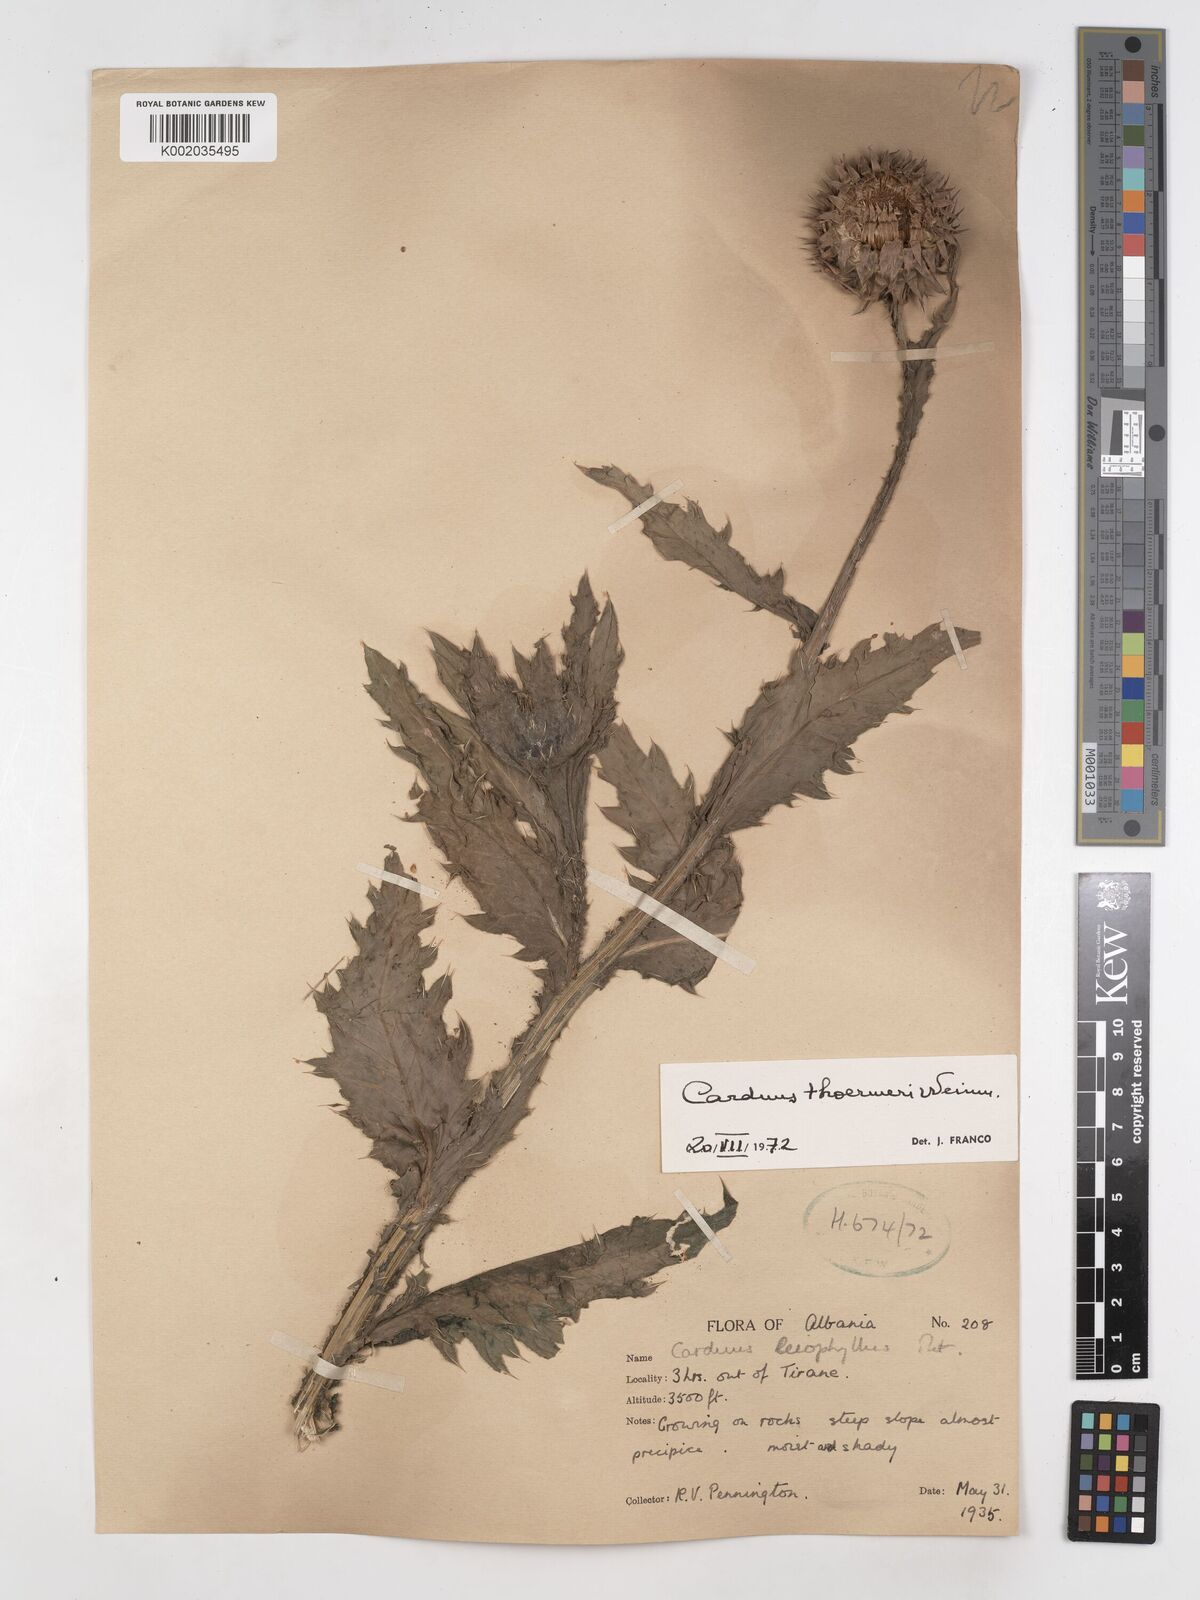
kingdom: Plantae
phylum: Tracheophyta
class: Magnoliopsida
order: Asterales
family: Asteraceae
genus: Carduus
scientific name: Carduus nutans
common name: Musk thistle
